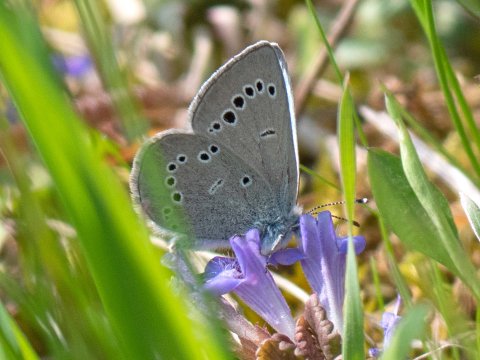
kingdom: Animalia
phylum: Arthropoda
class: Insecta
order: Lepidoptera
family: Lycaenidae
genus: Glaucopsyche
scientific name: Glaucopsyche lygdamus
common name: Silvery Blue
